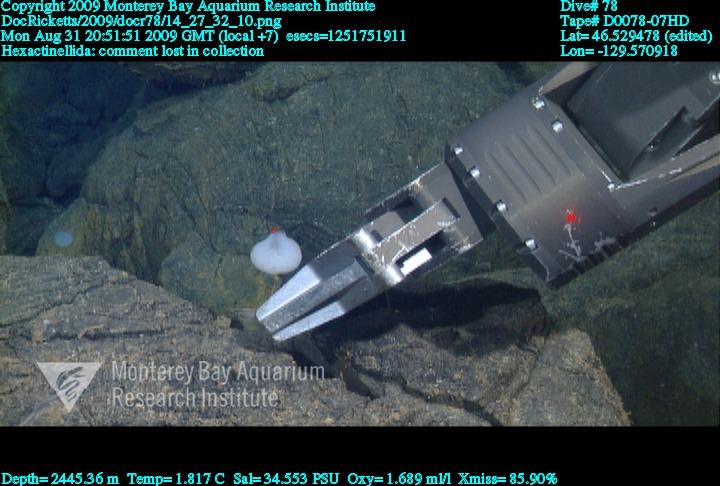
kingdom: Animalia
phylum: Porifera
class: Hexactinellida
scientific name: Hexactinellida
